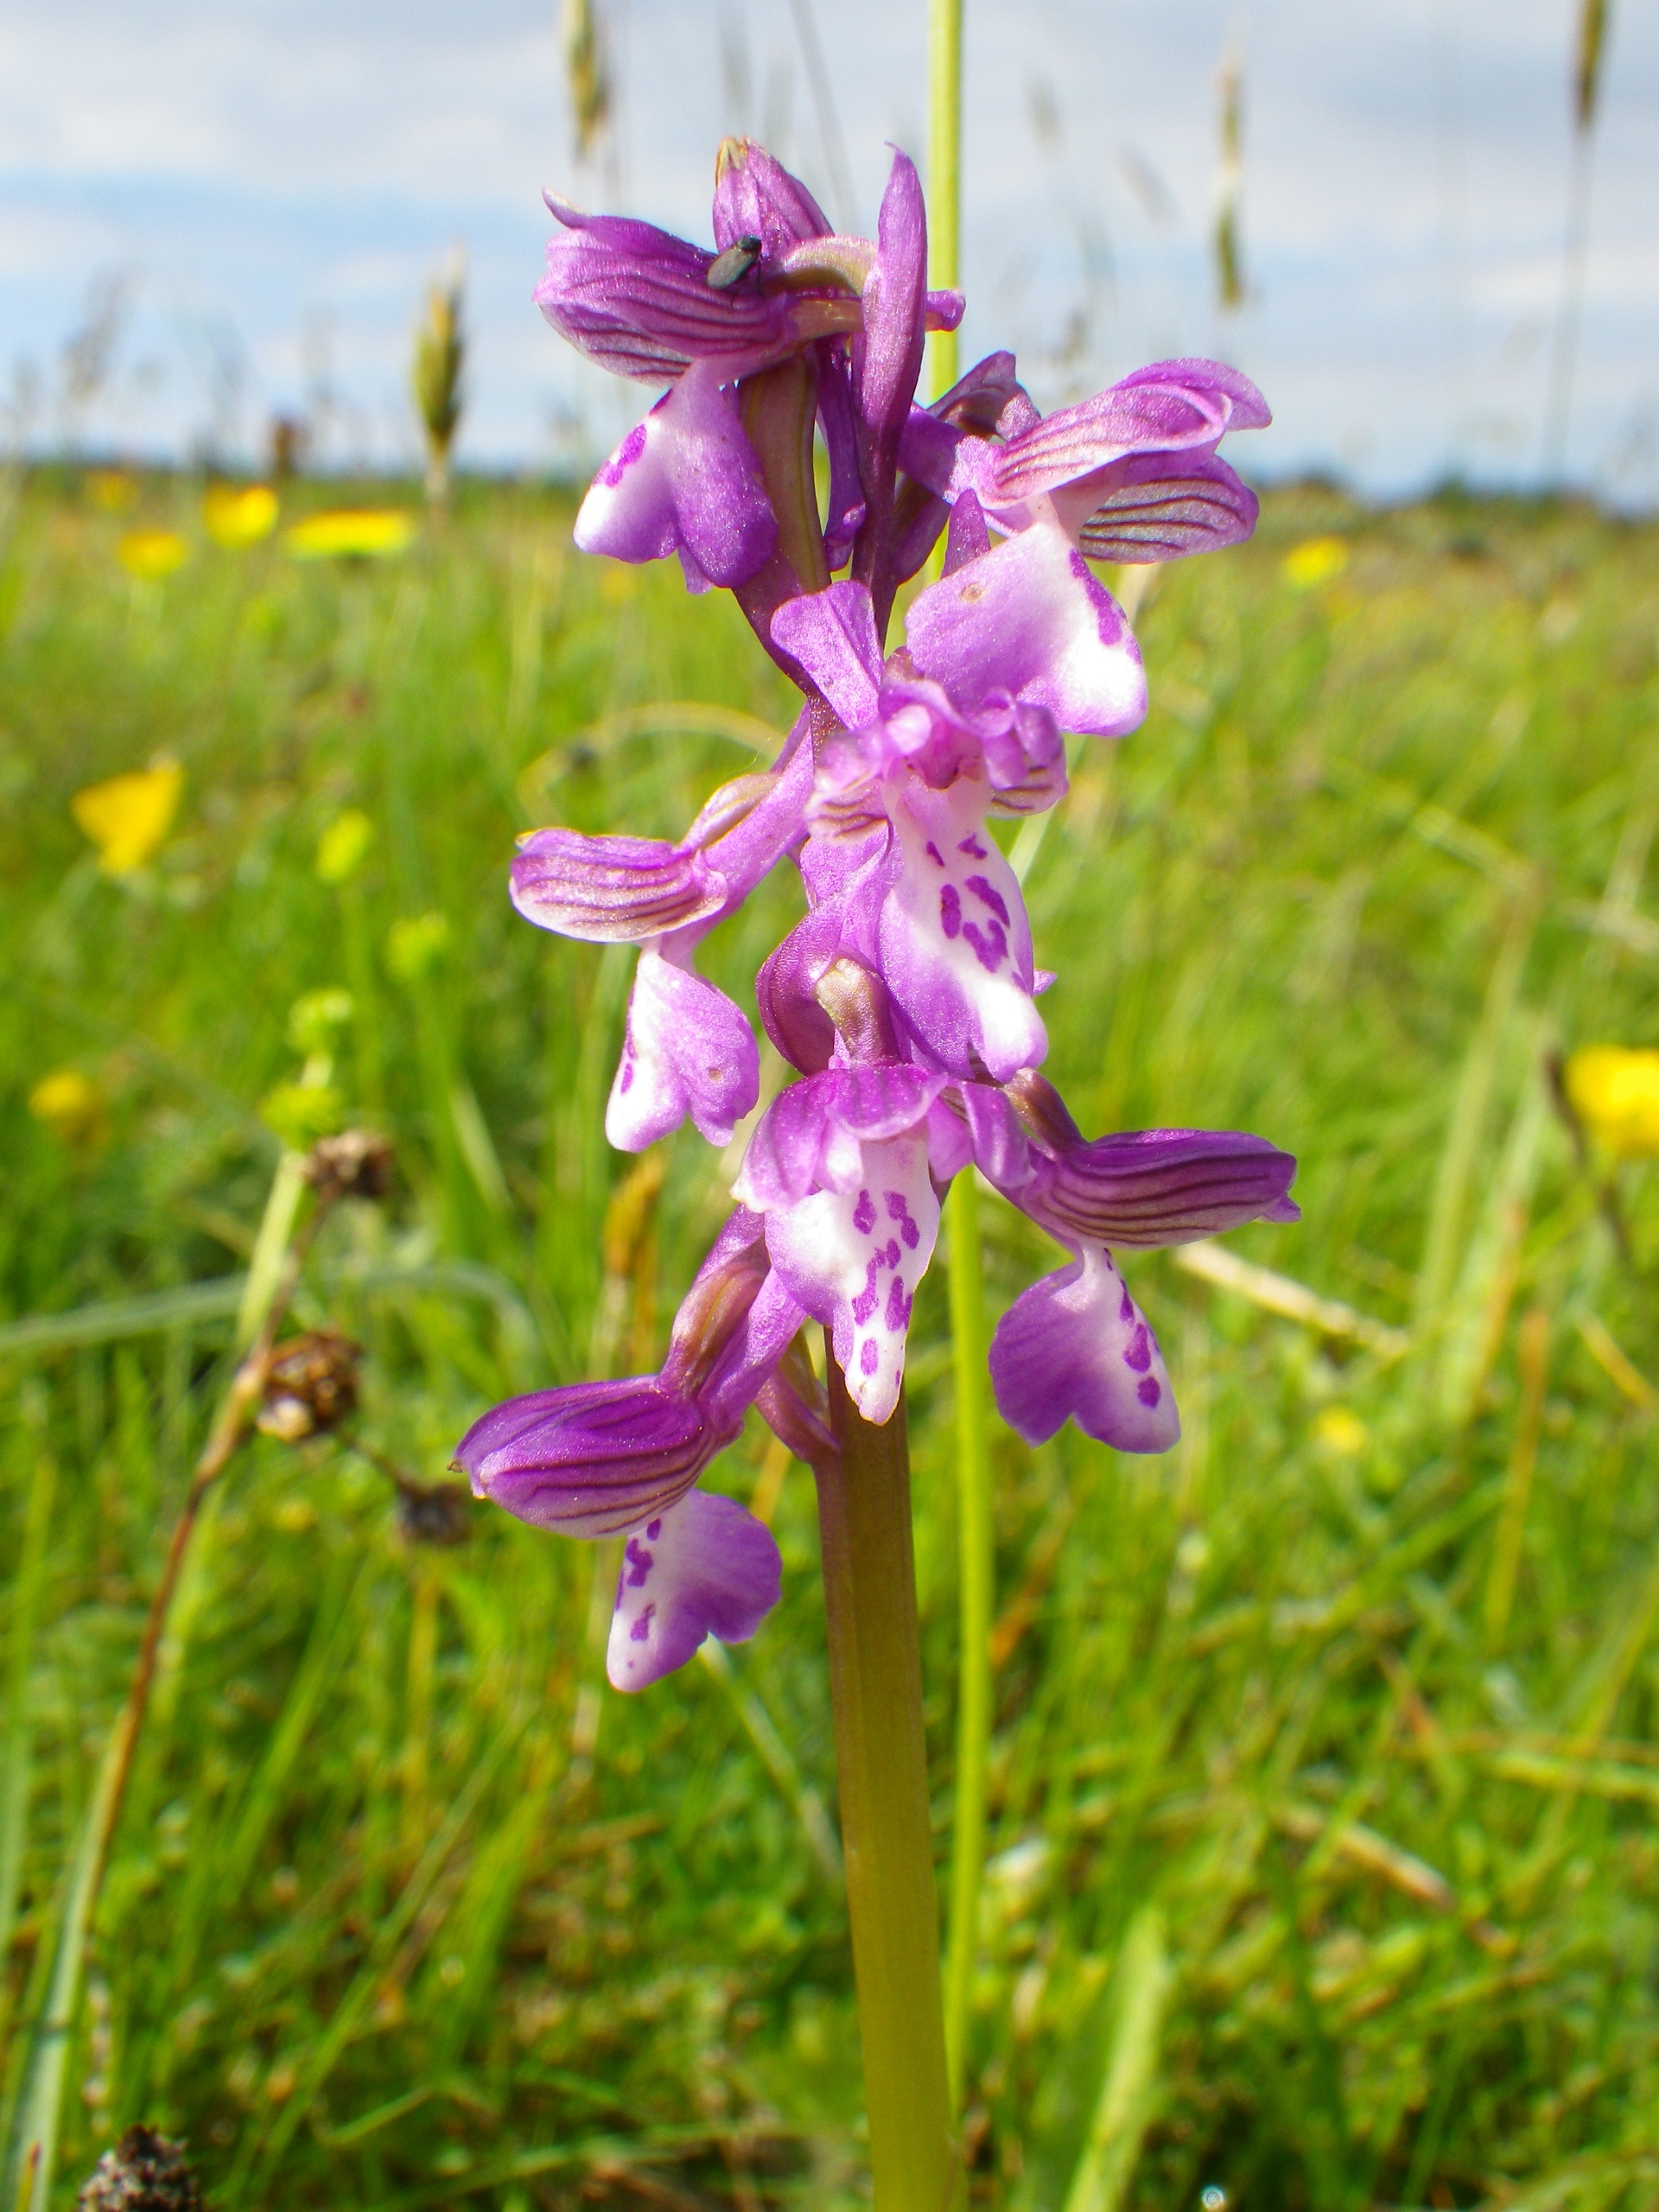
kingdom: Plantae
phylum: Tracheophyta
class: Liliopsida
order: Asparagales
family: Orchidaceae
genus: Anacamptis
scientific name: Anacamptis morio
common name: Salepgøgeurt
